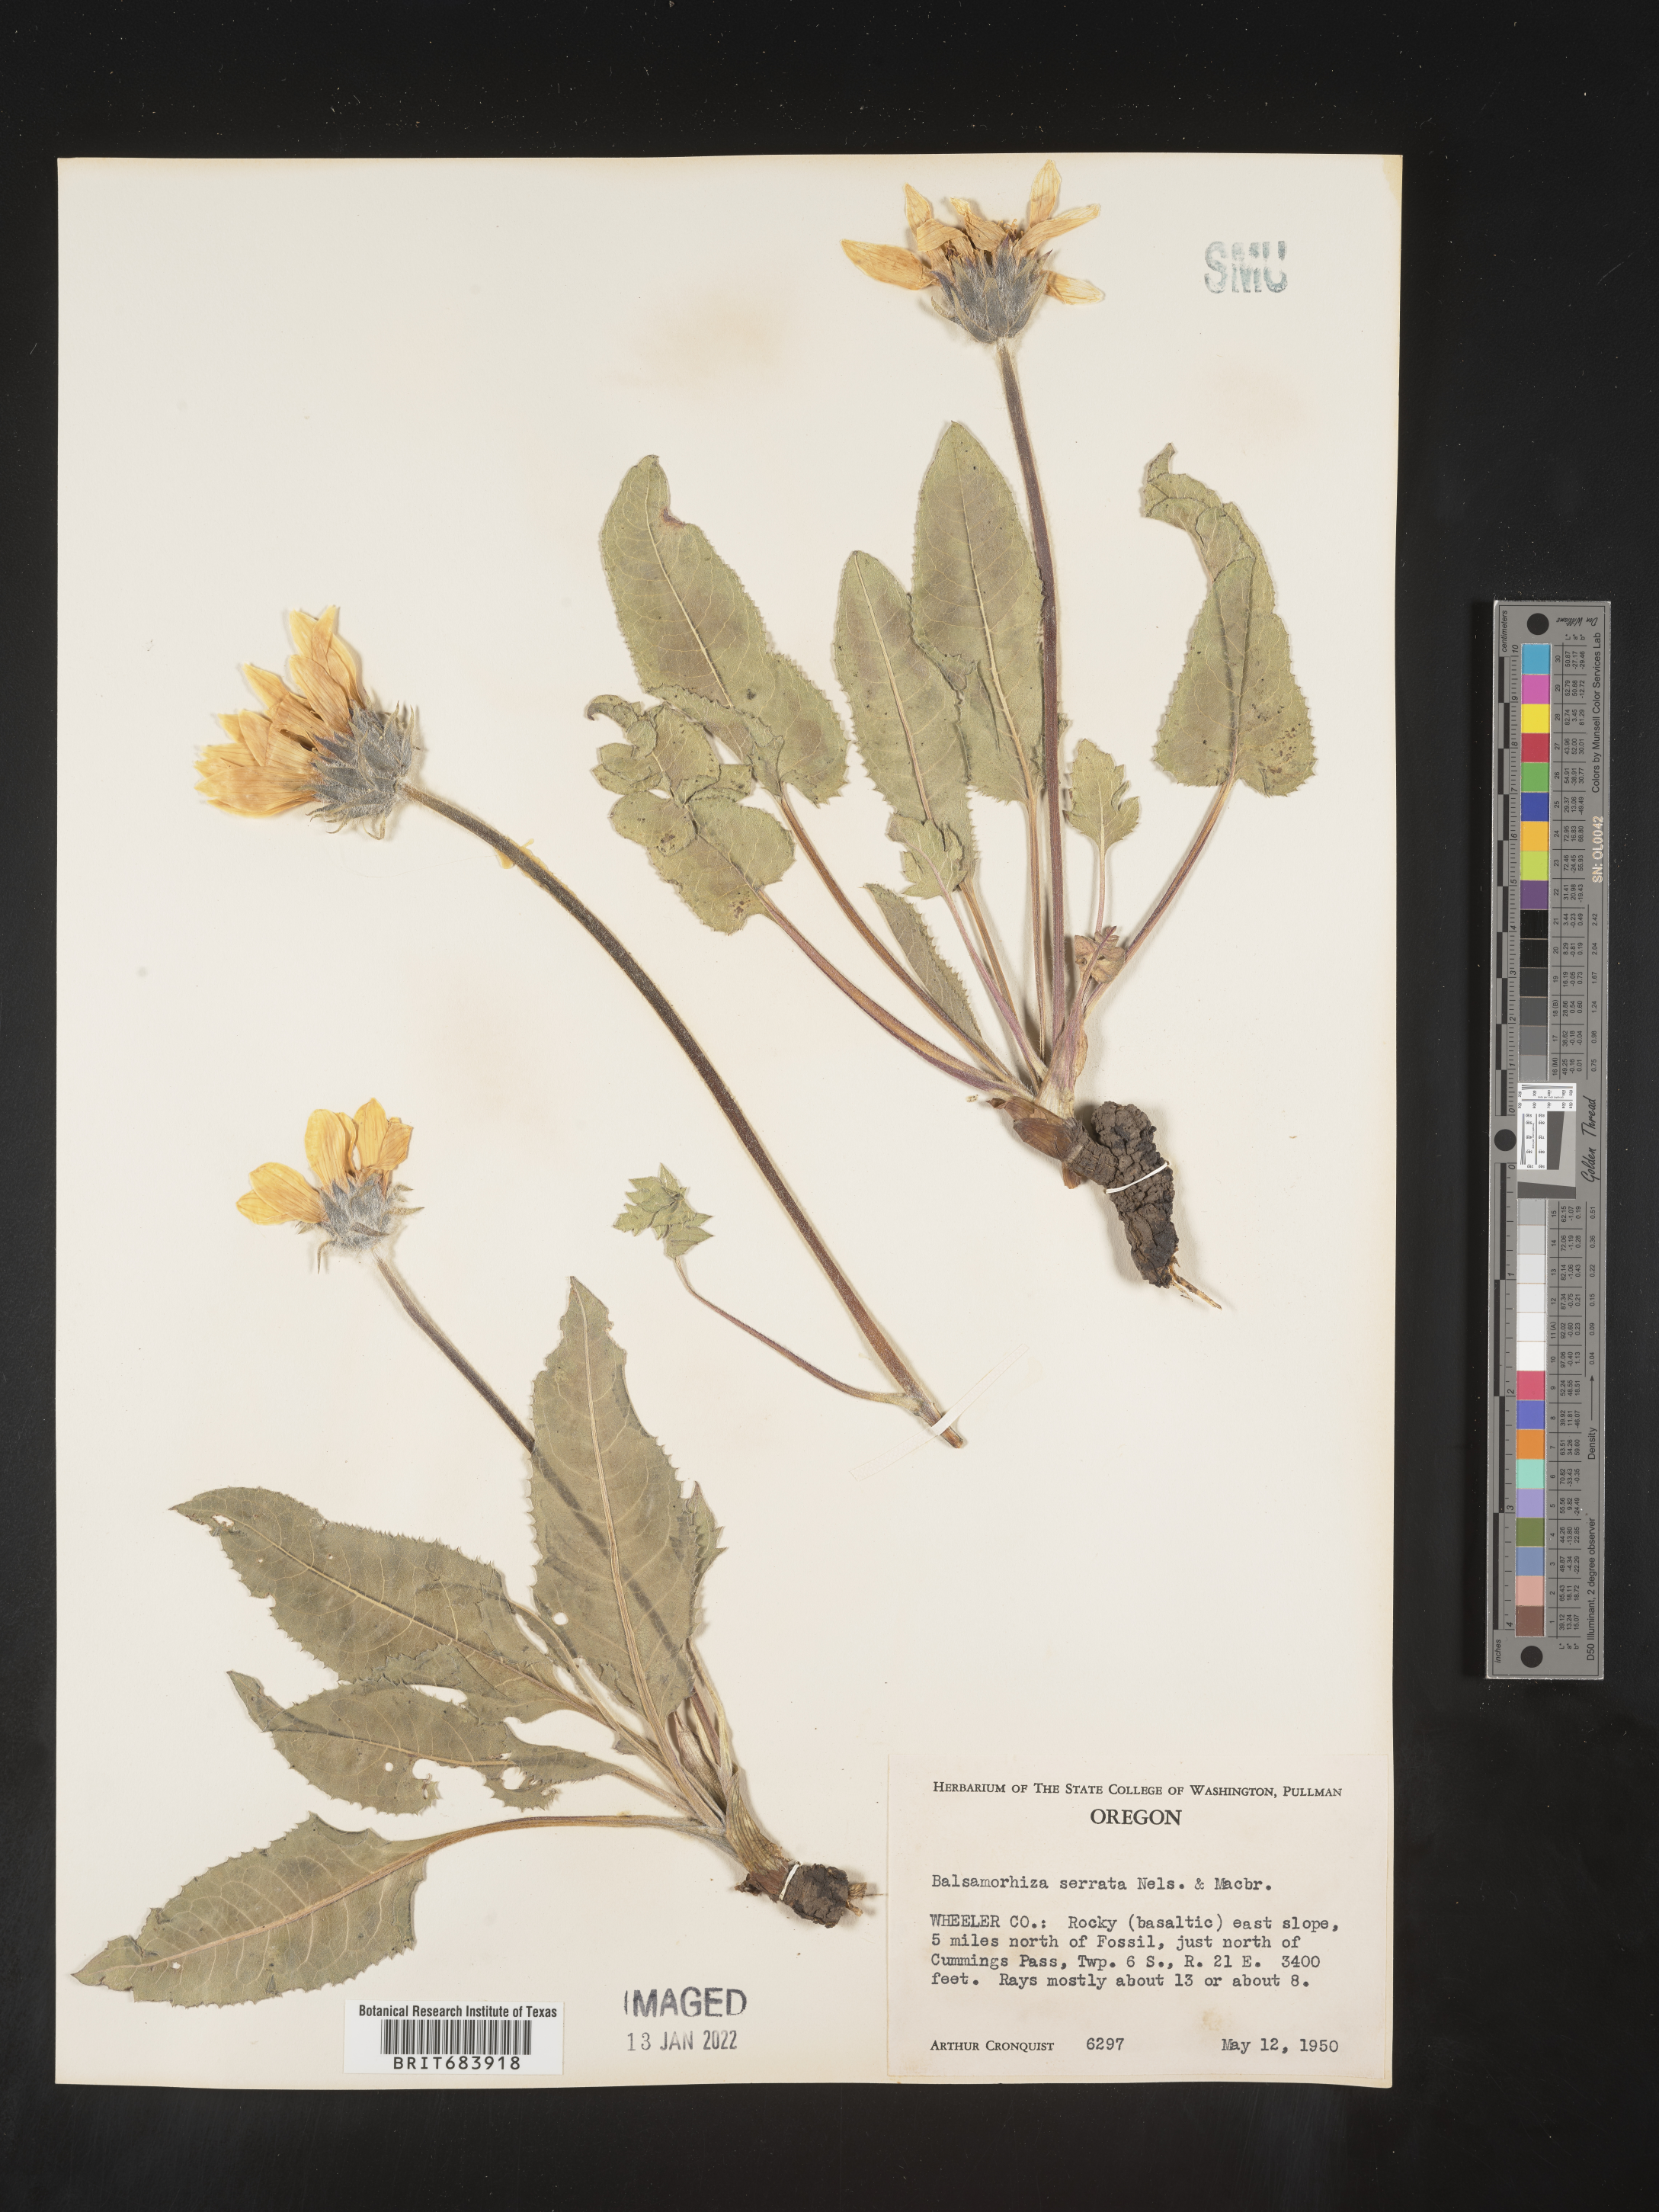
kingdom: Plantae
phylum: Tracheophyta
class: Magnoliopsida
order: Asterales
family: Asteraceae
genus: Balsamorhiza
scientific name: Balsamorhiza serrata
